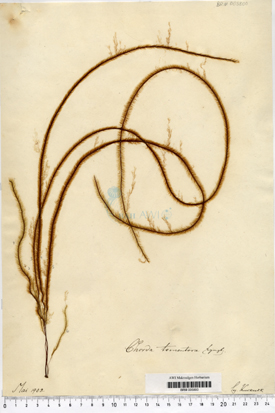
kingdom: Chromista
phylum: Ochrophyta
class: Phaeophyceae
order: Tilopteridales
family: Halosiphonaceae
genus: Halosiphon
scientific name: Halosiphon tomentosus
